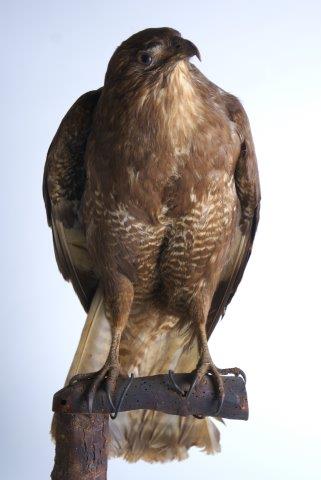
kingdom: Animalia
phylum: Chordata
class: Aves
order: Accipitriformes
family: Accipitridae
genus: Buteo
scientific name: Buteo buteo
